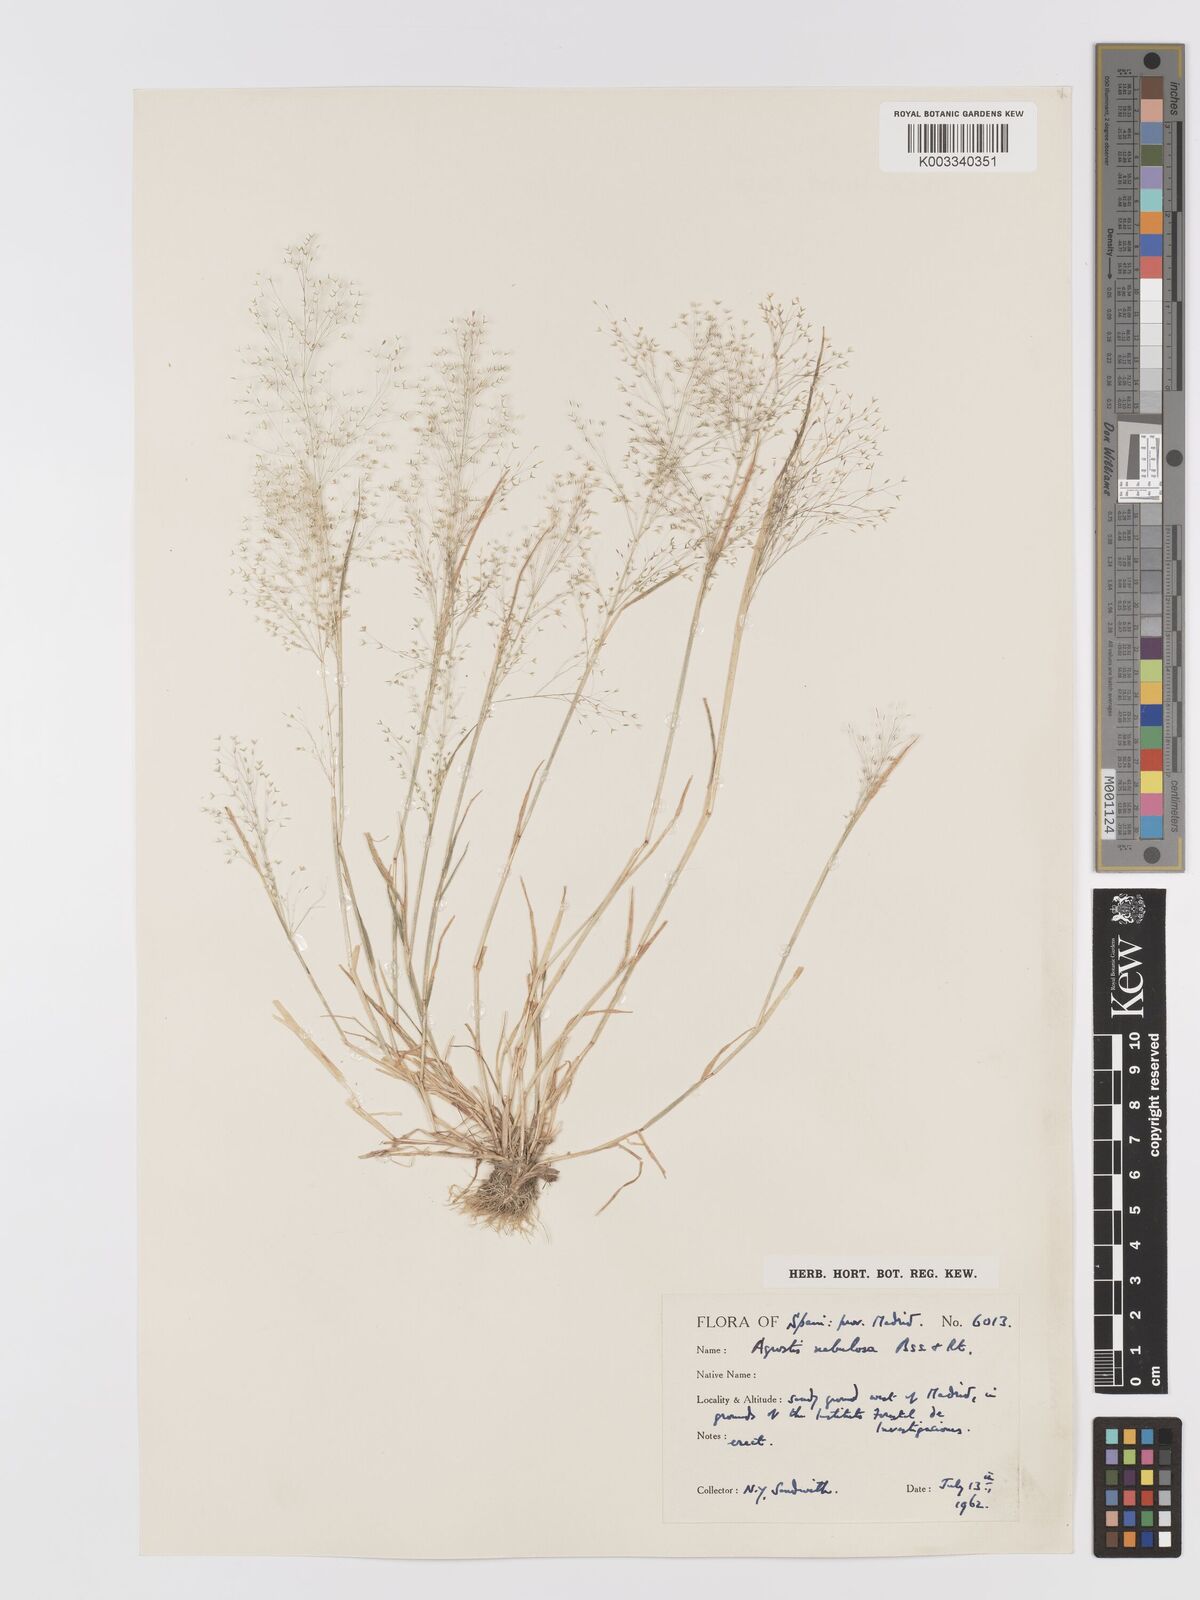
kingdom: Plantae
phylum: Tracheophyta
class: Liliopsida
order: Poales
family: Poaceae
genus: Agrostis
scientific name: Agrostis nebulosa
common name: Cloud grass
